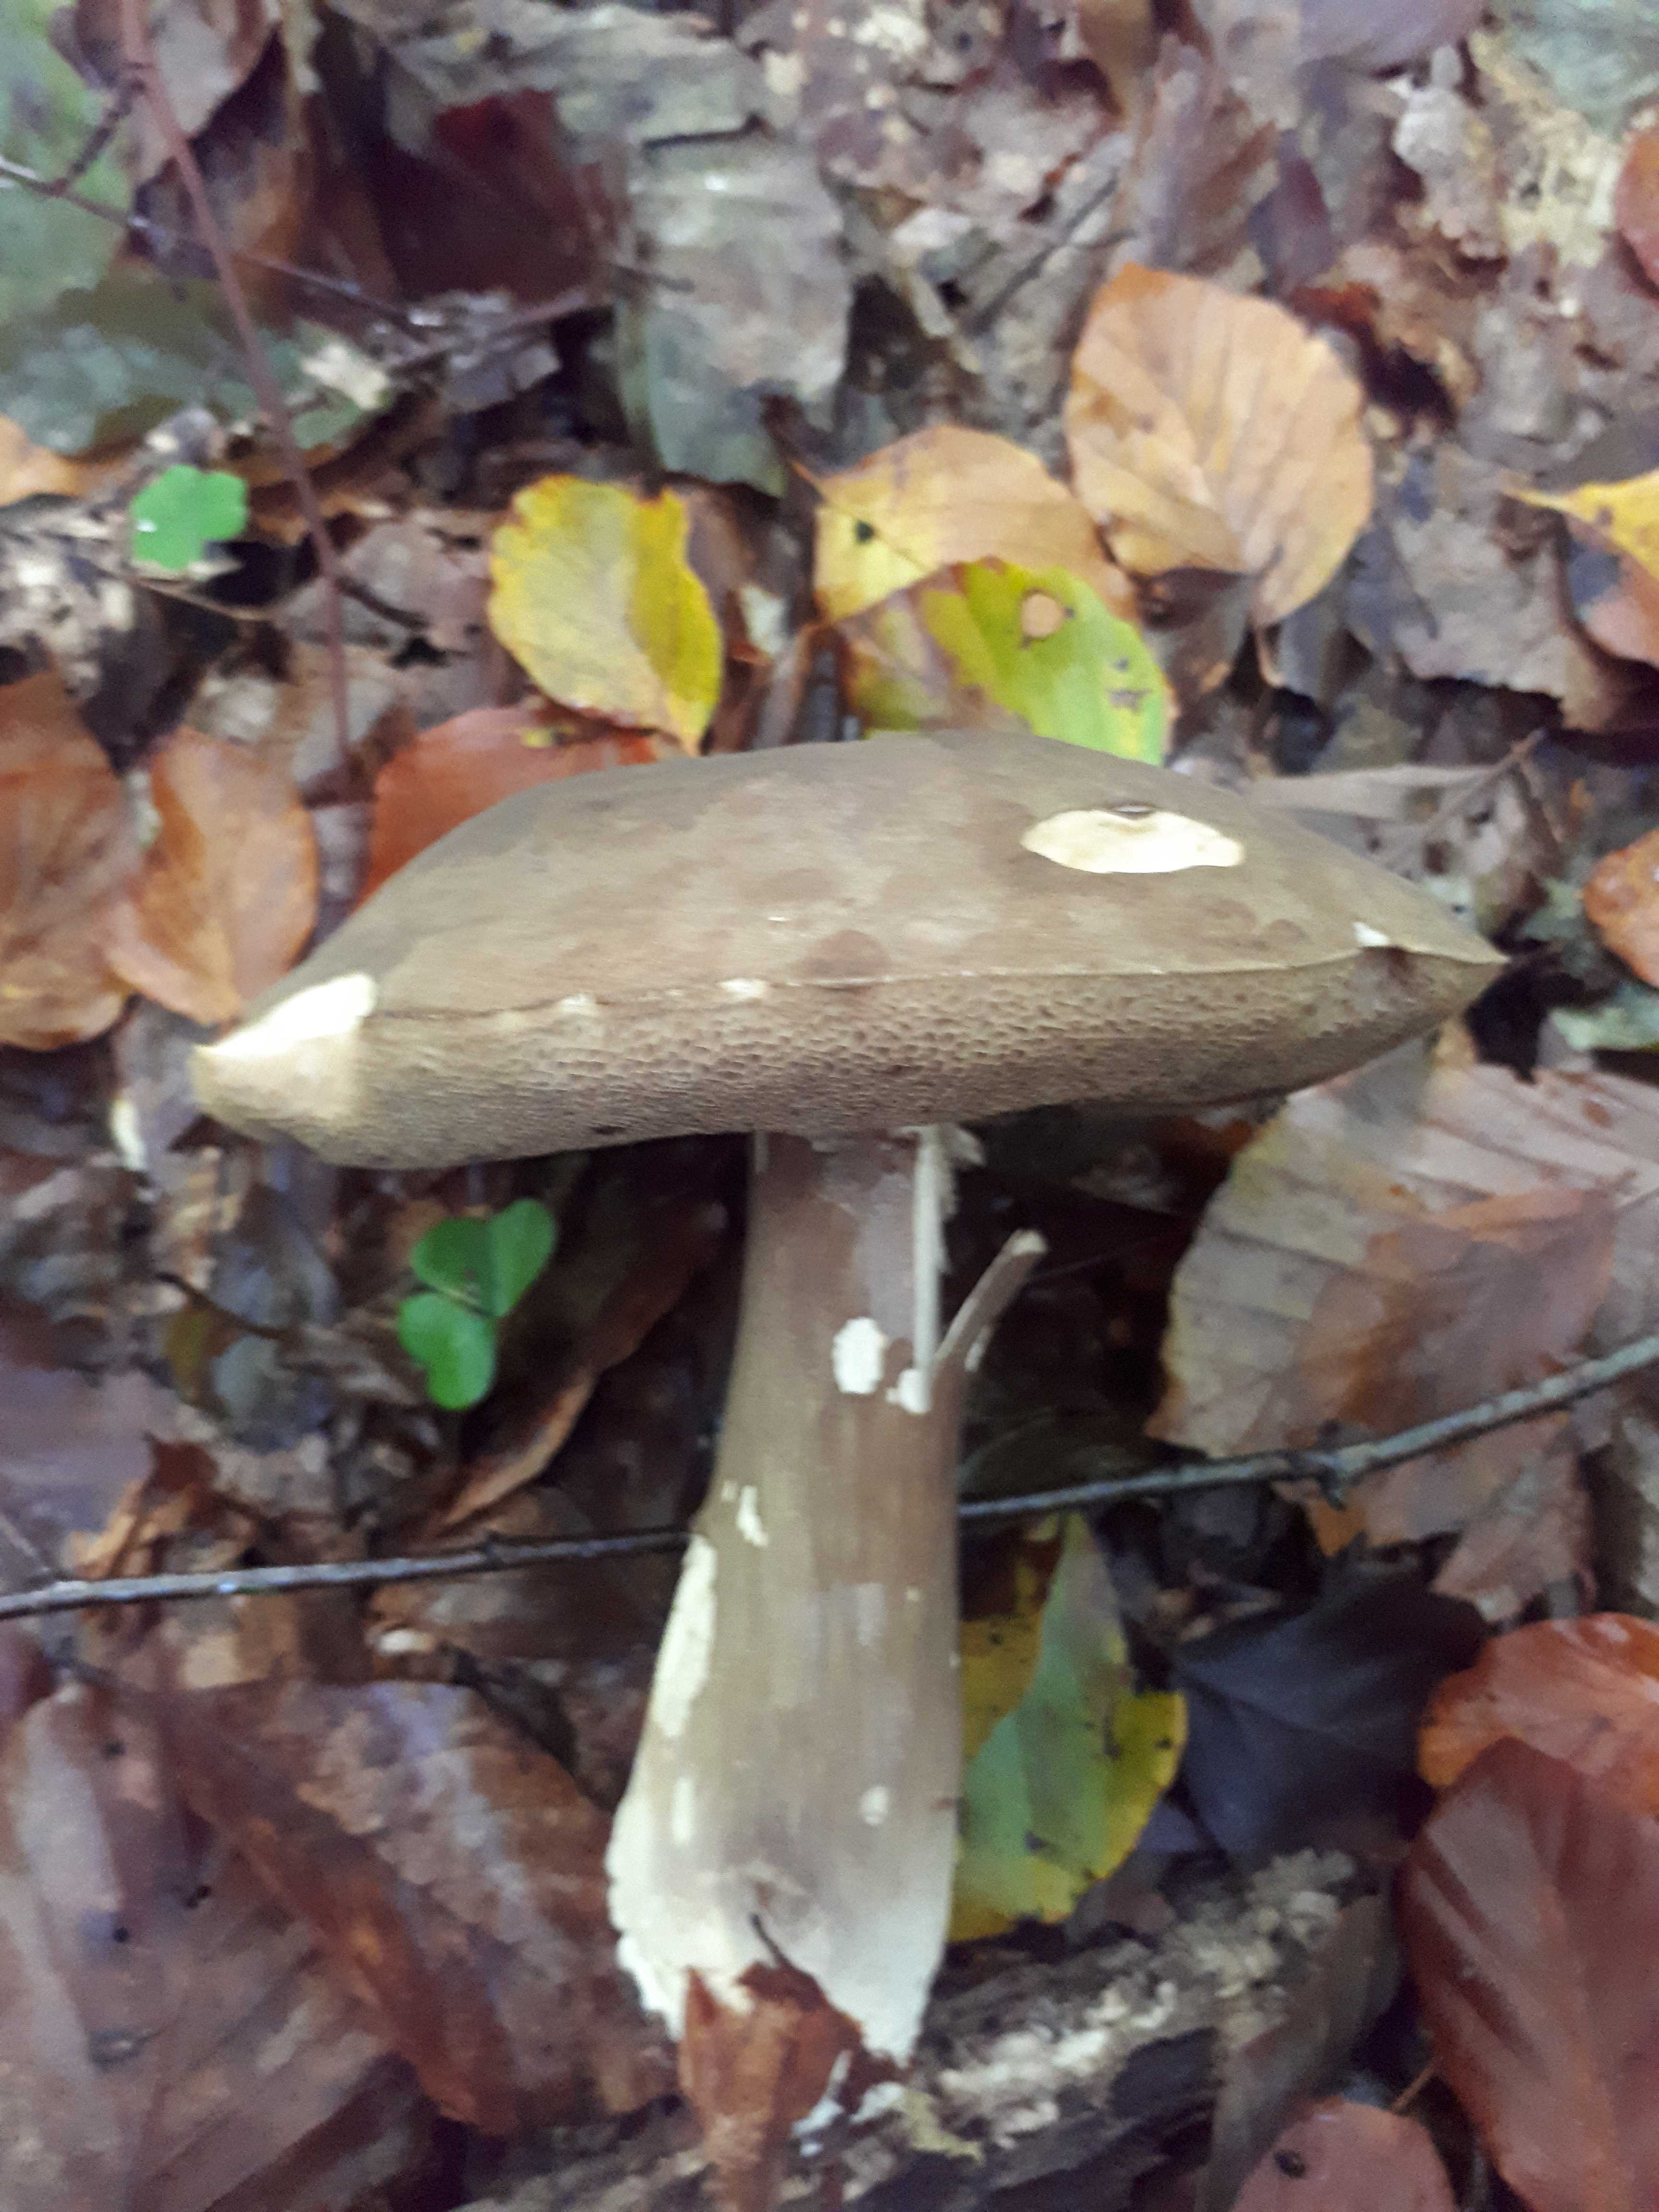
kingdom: Fungi
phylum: Basidiomycota
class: Agaricomycetes
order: Boletales
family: Boletaceae
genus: Porphyrellus
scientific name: Porphyrellus porphyrosporus
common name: sodrørhat
